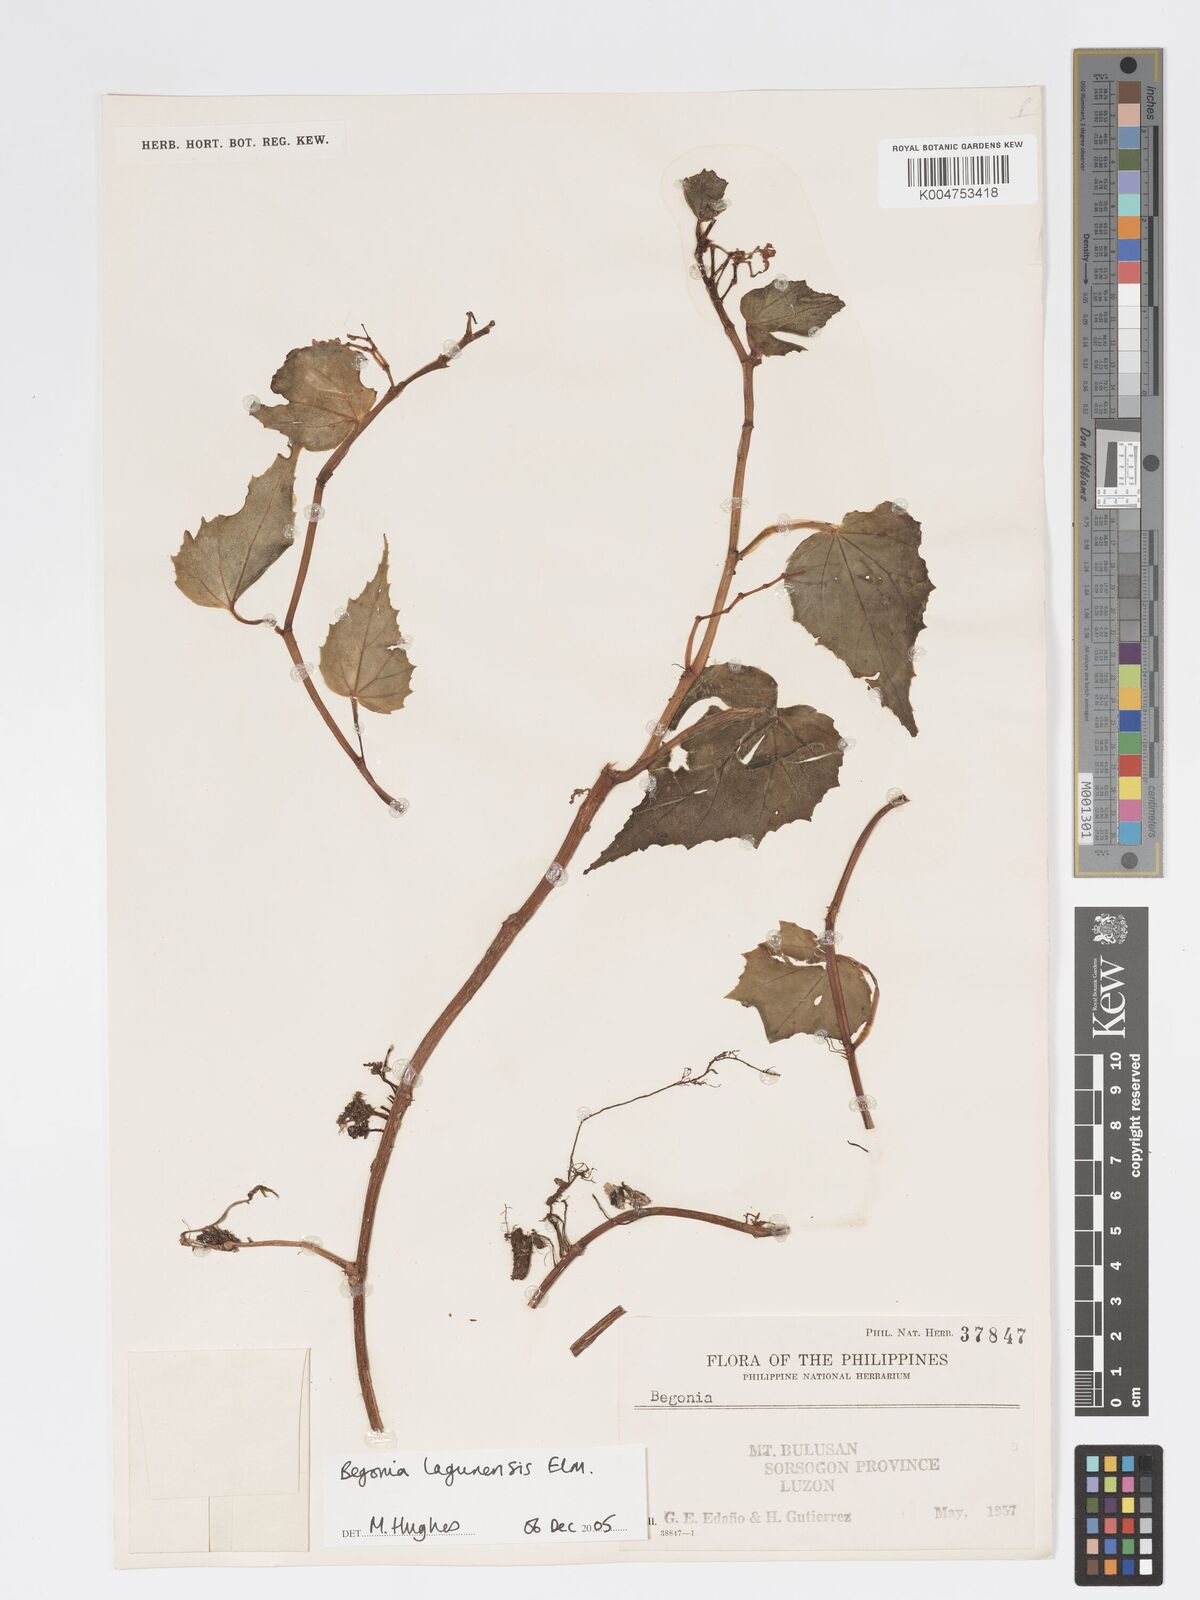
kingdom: Plantae
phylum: Tracheophyta
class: Magnoliopsida
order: Cucurbitales
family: Begoniaceae
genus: Begonia
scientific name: Begonia lagunensis
